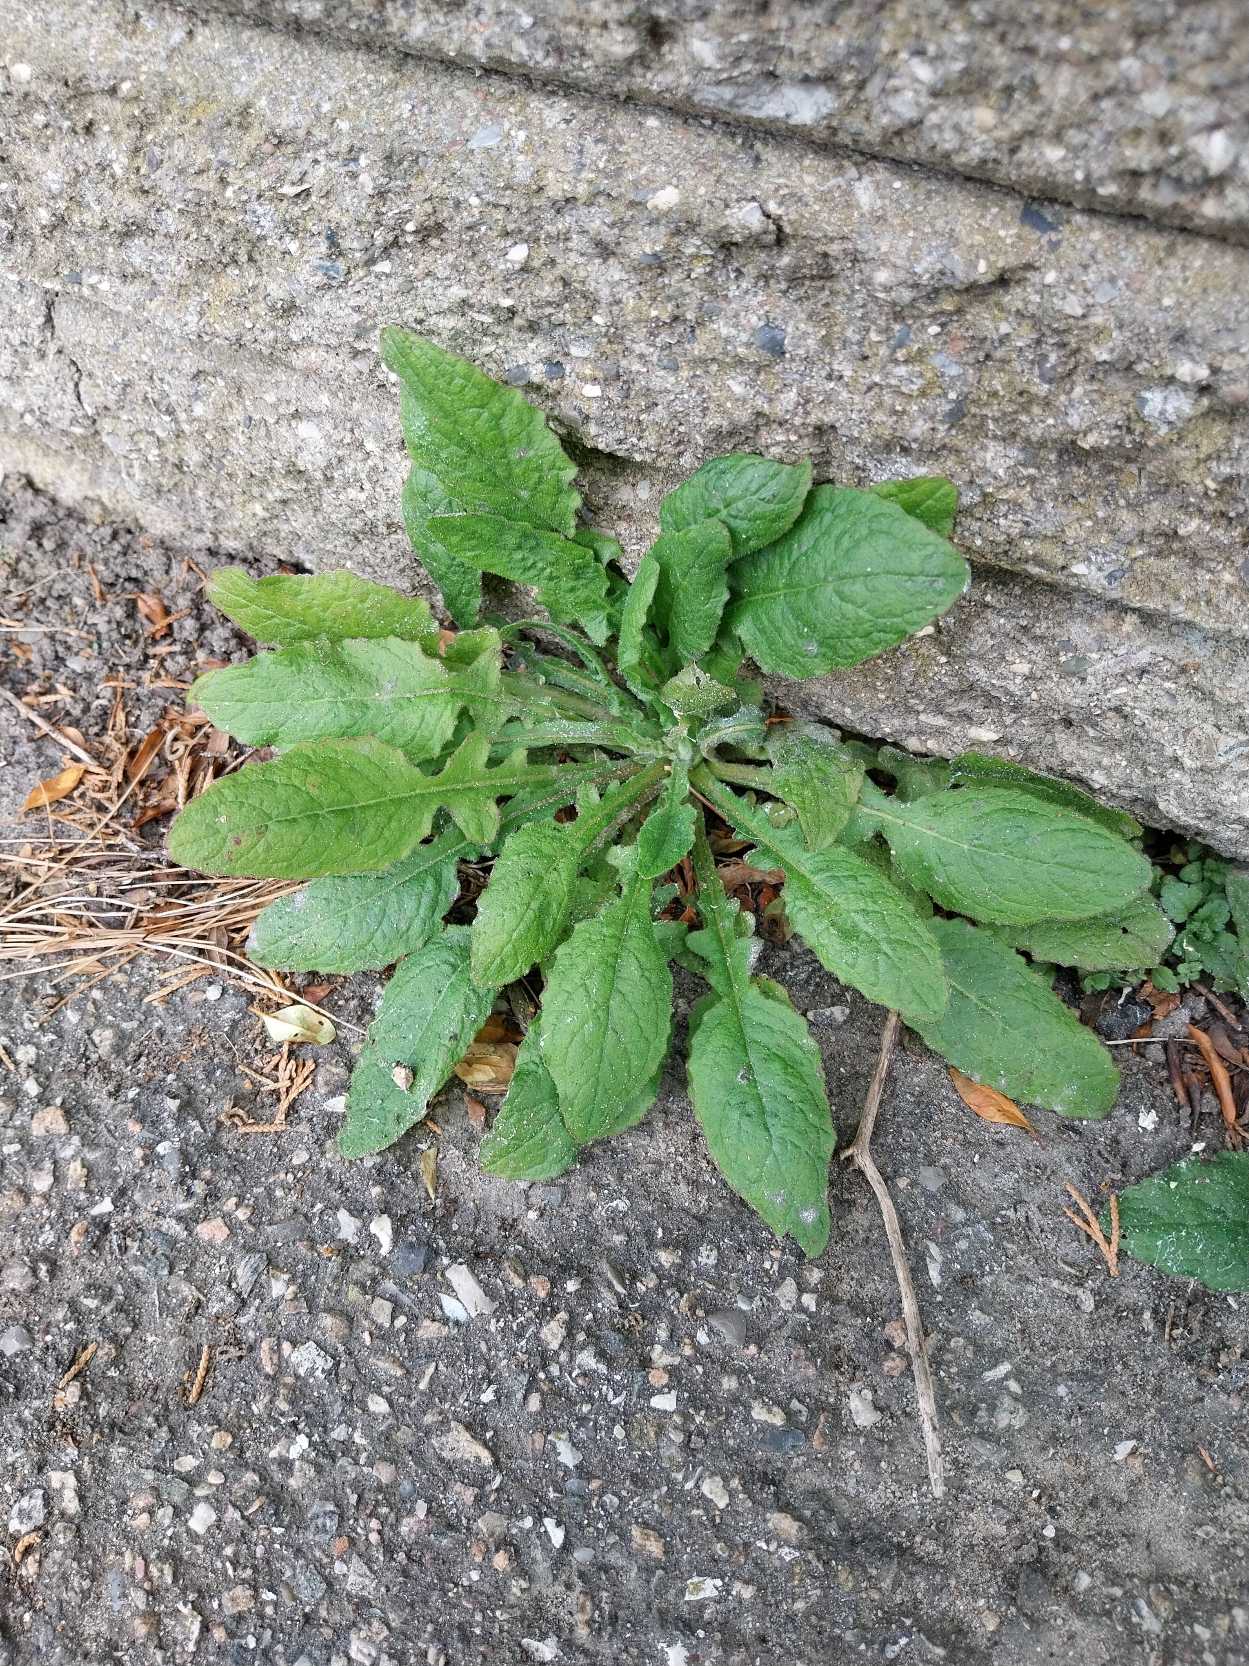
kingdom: Plantae
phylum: Tracheophyta
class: Magnoliopsida
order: Asterales
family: Asteraceae
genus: Lapsana
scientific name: Lapsana communis
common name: Haremad
